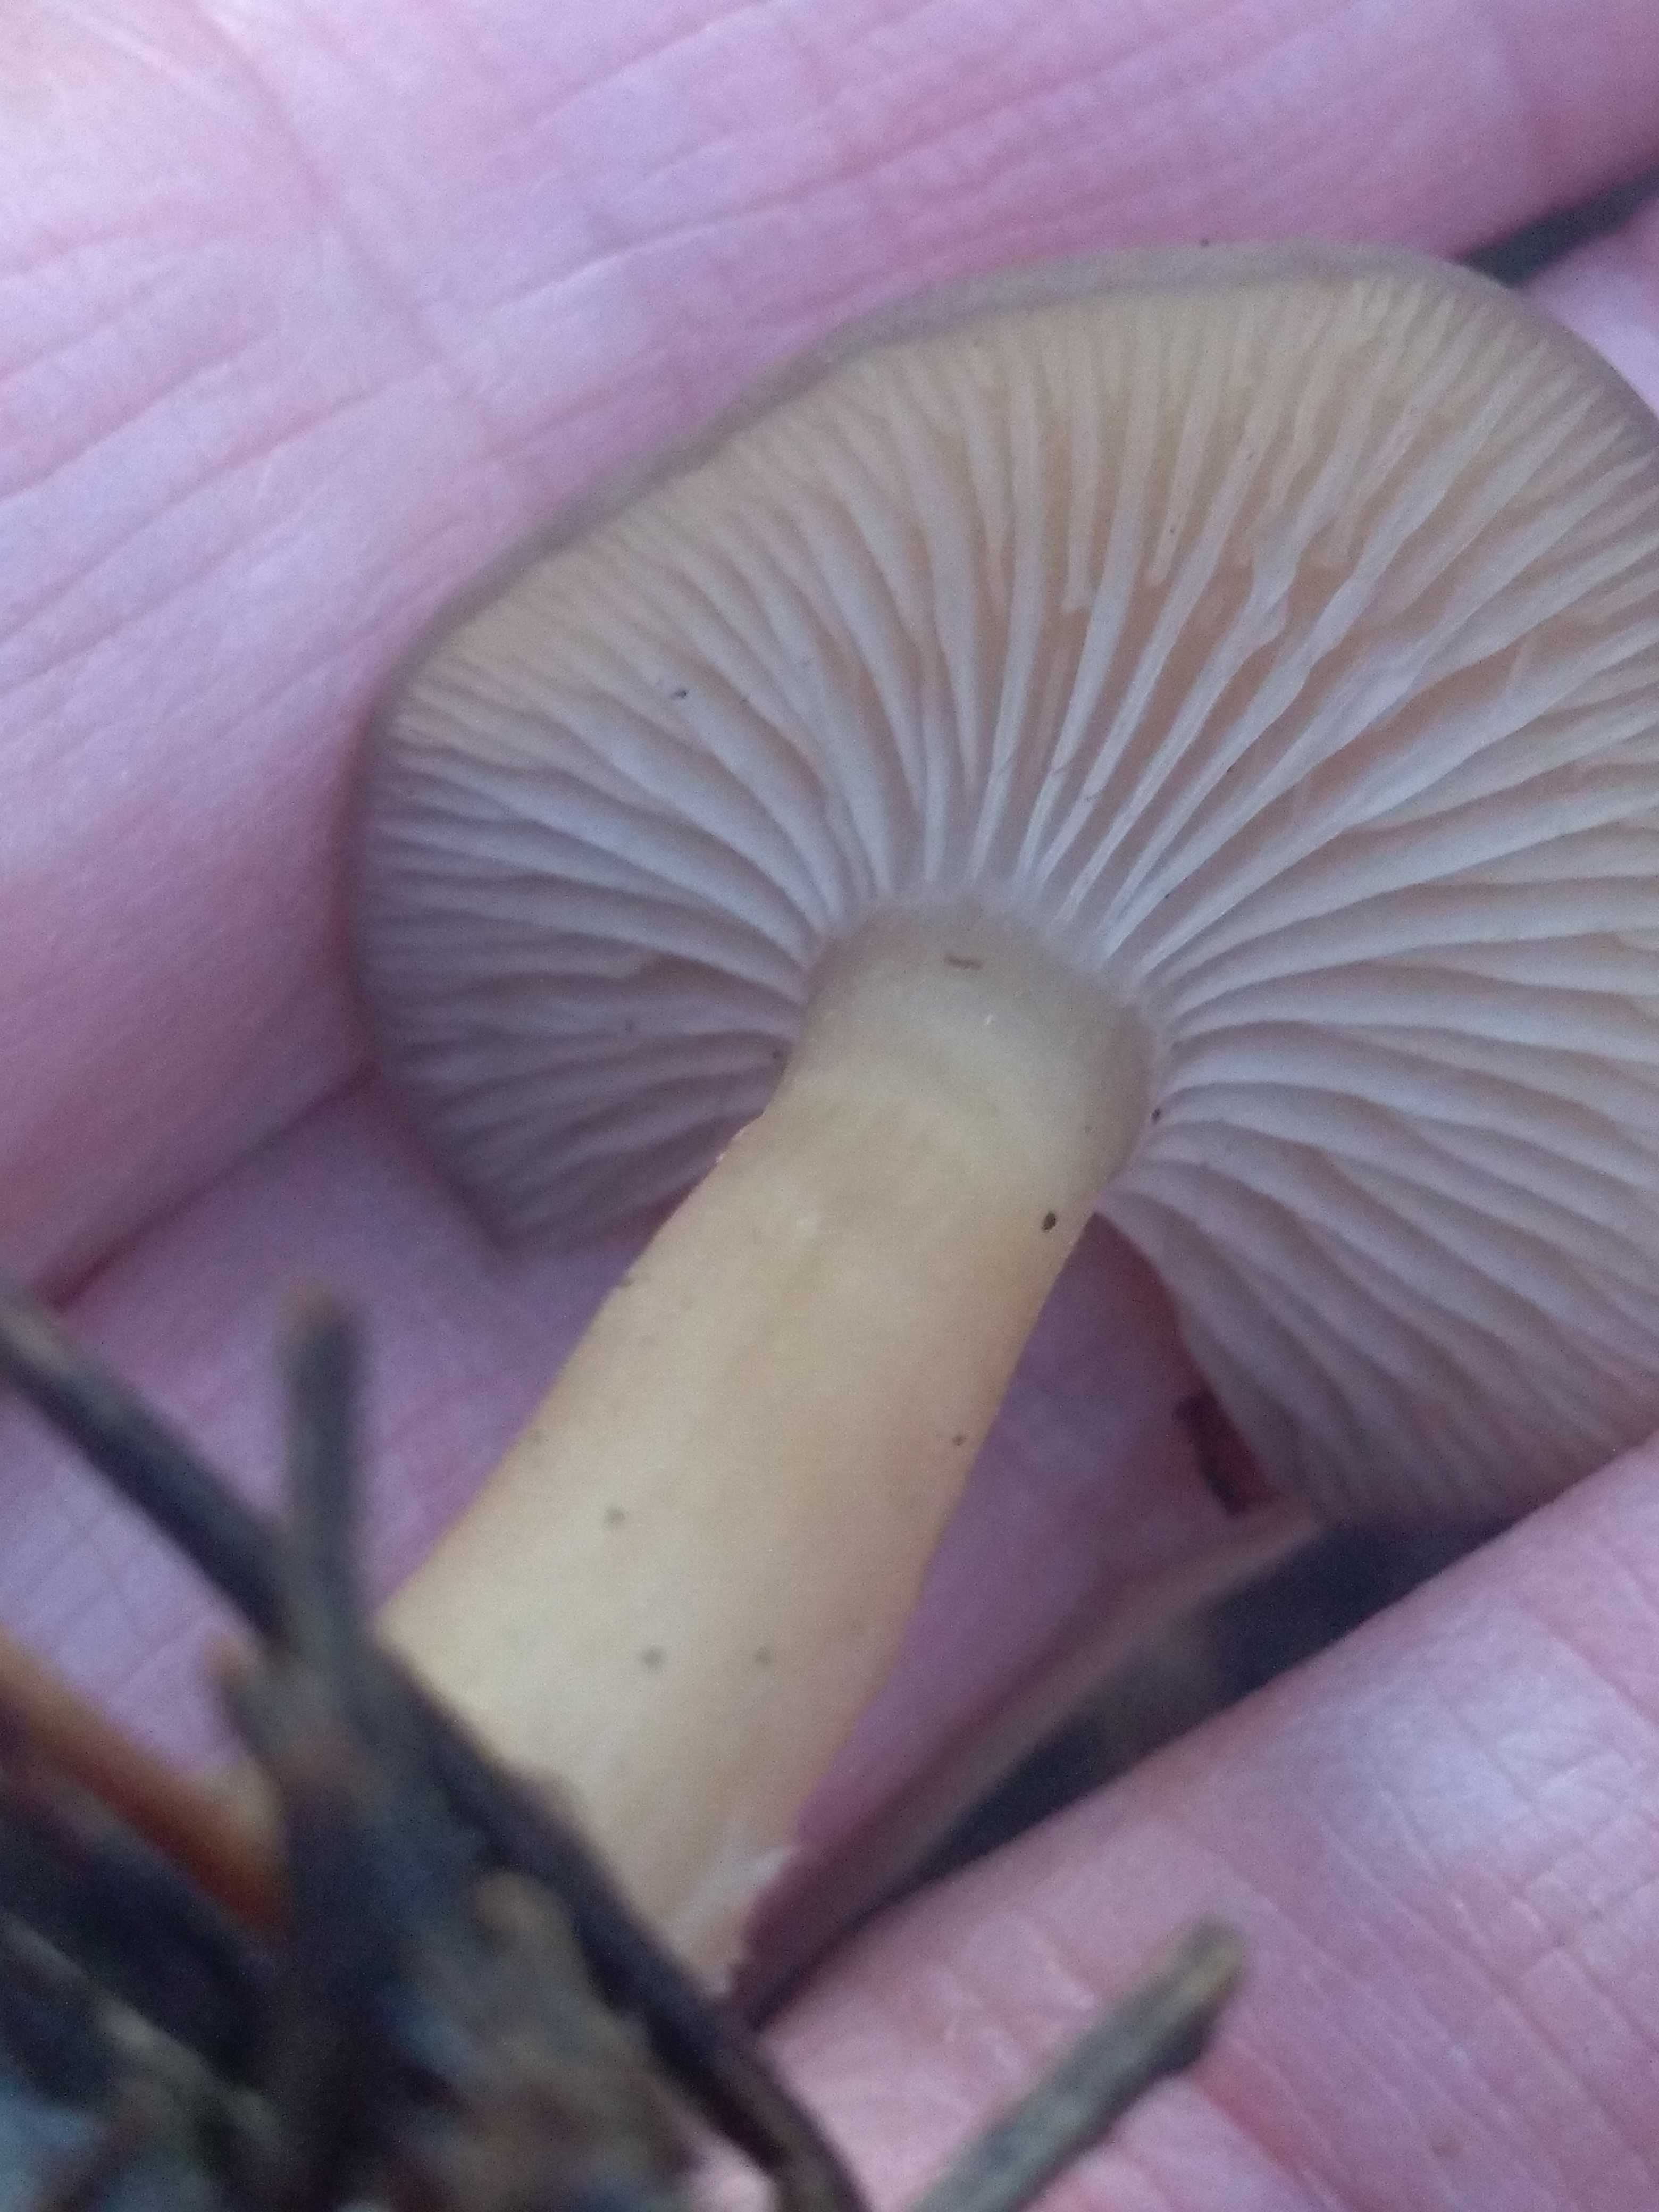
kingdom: Fungi
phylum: Basidiomycota
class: Agaricomycetes
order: Agaricales
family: Tricholomataceae
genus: Clitocybe
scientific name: Clitocybe fragrans
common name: vellugtende tragthat
